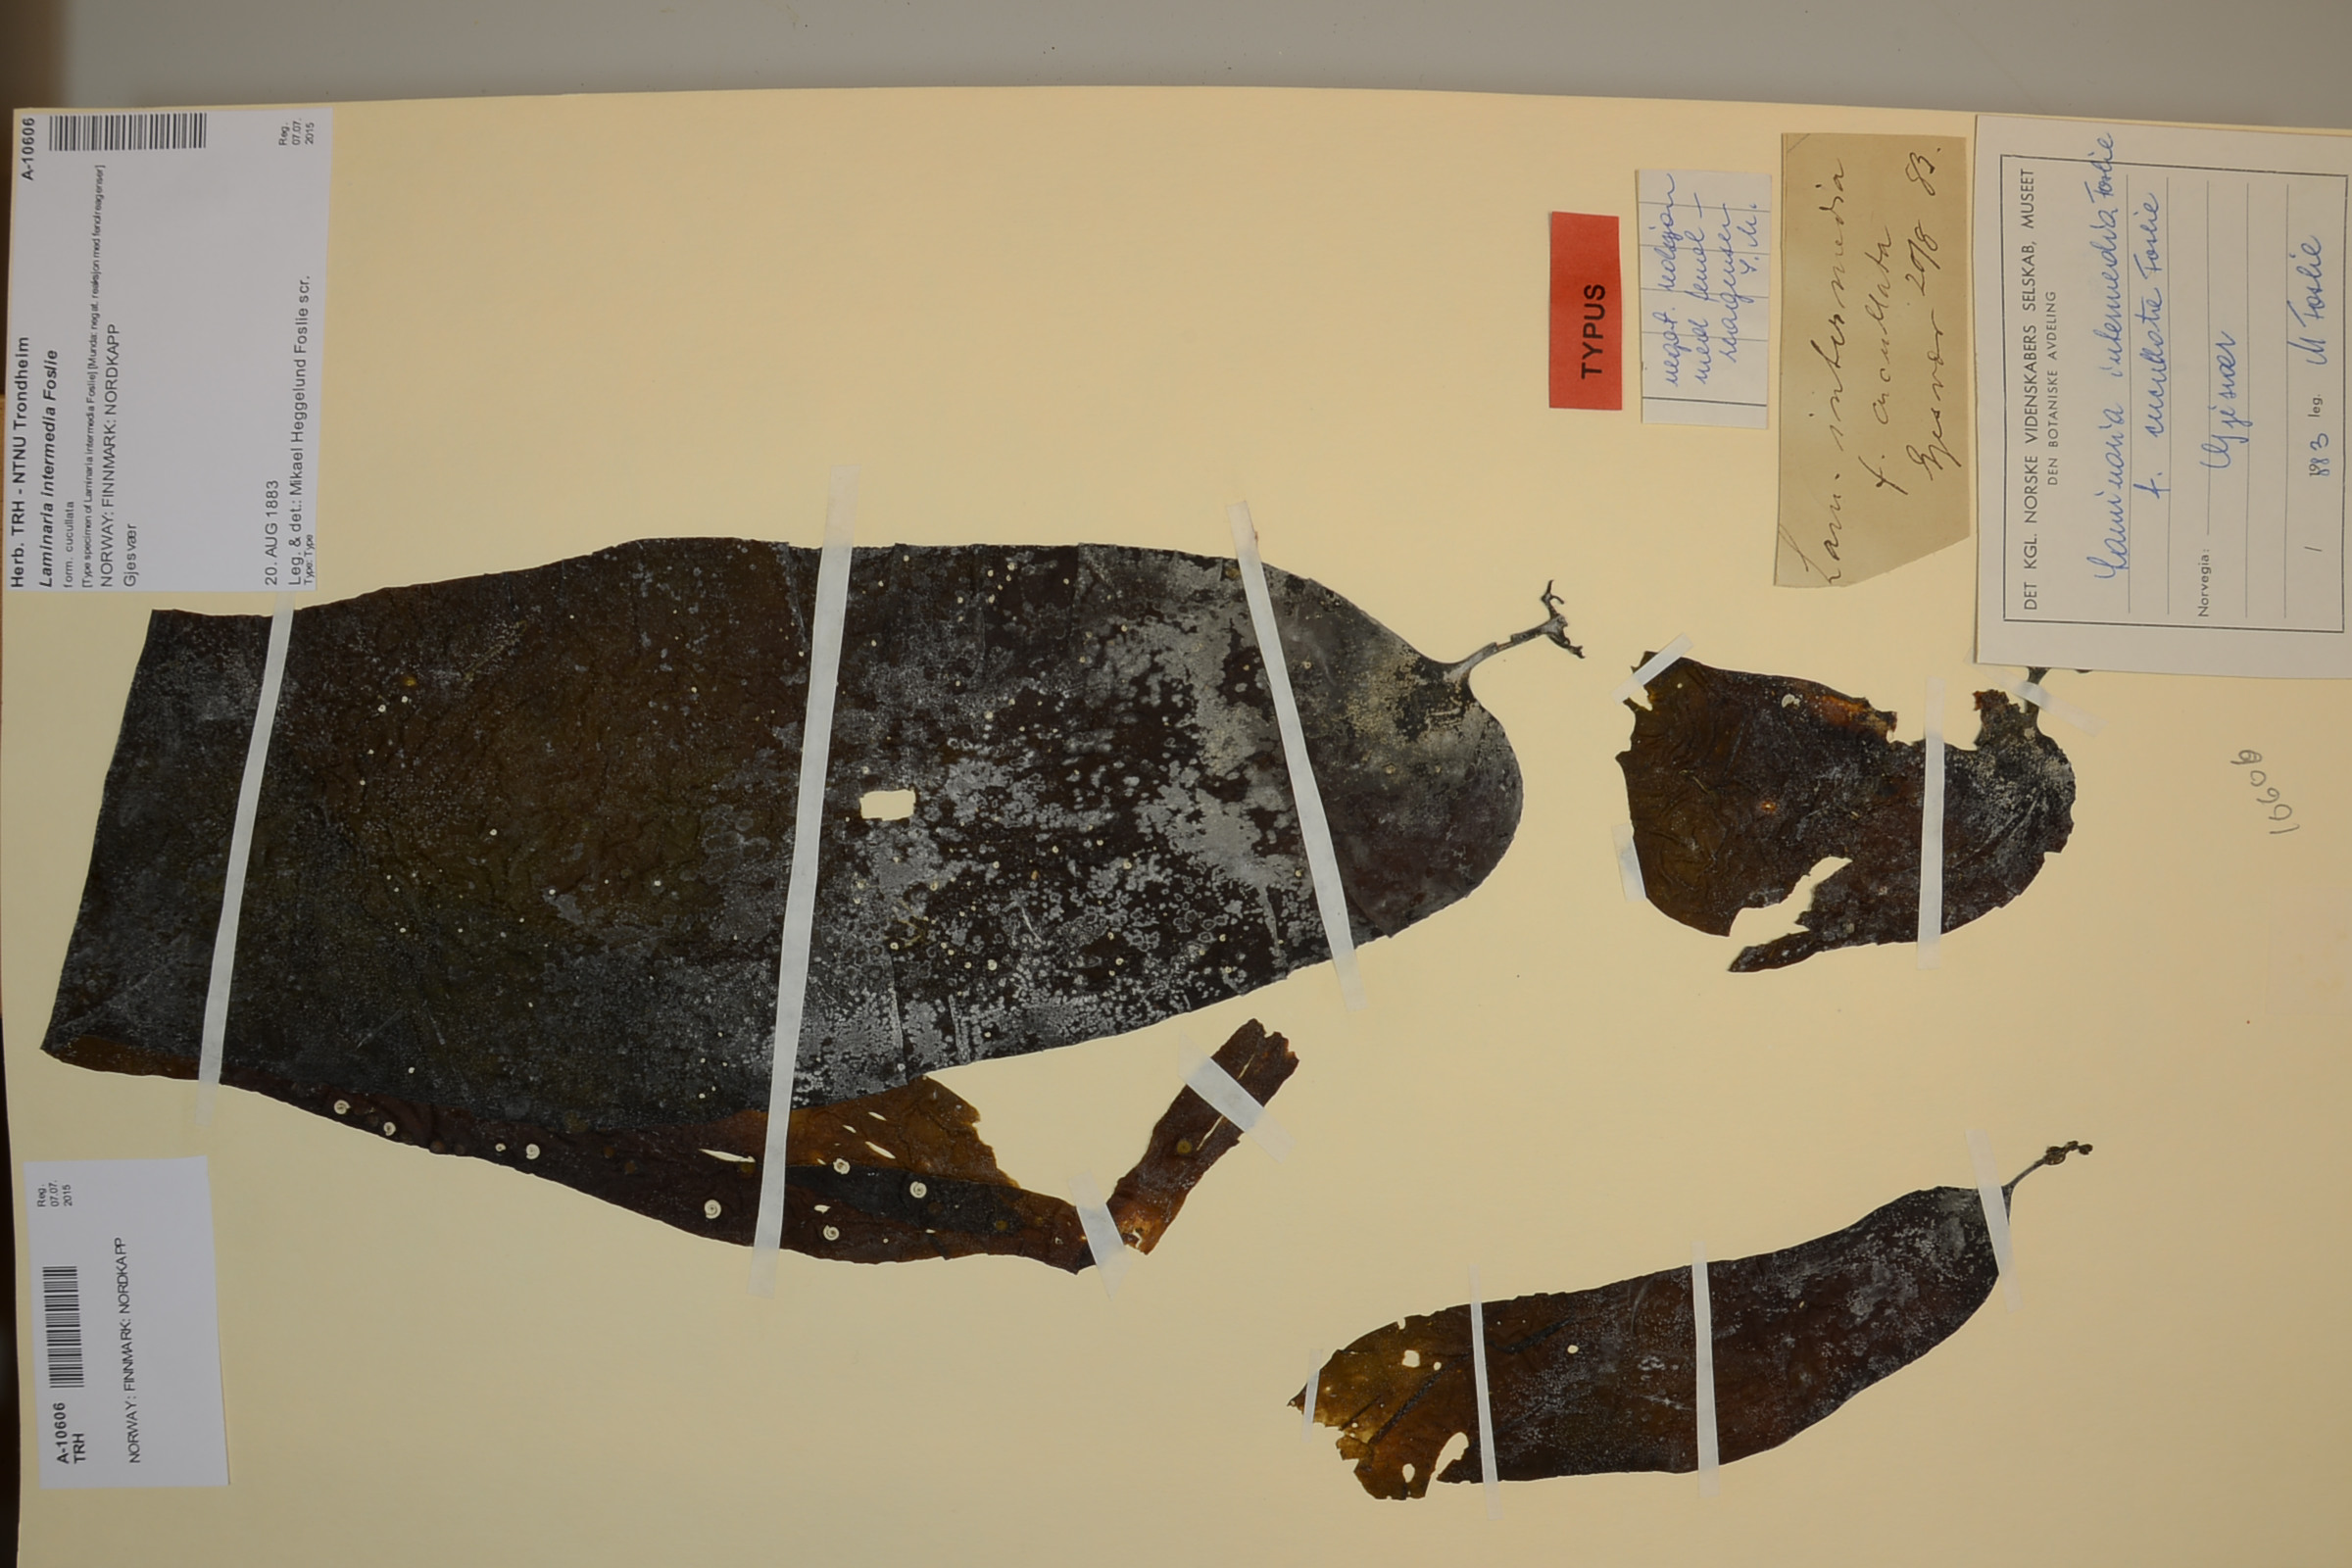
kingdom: Chromista
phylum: Ochrophyta
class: Phaeophyceae
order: Laminariales
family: Laminariaceae
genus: Laminaria
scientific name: Laminaria digitata
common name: Oarweed
